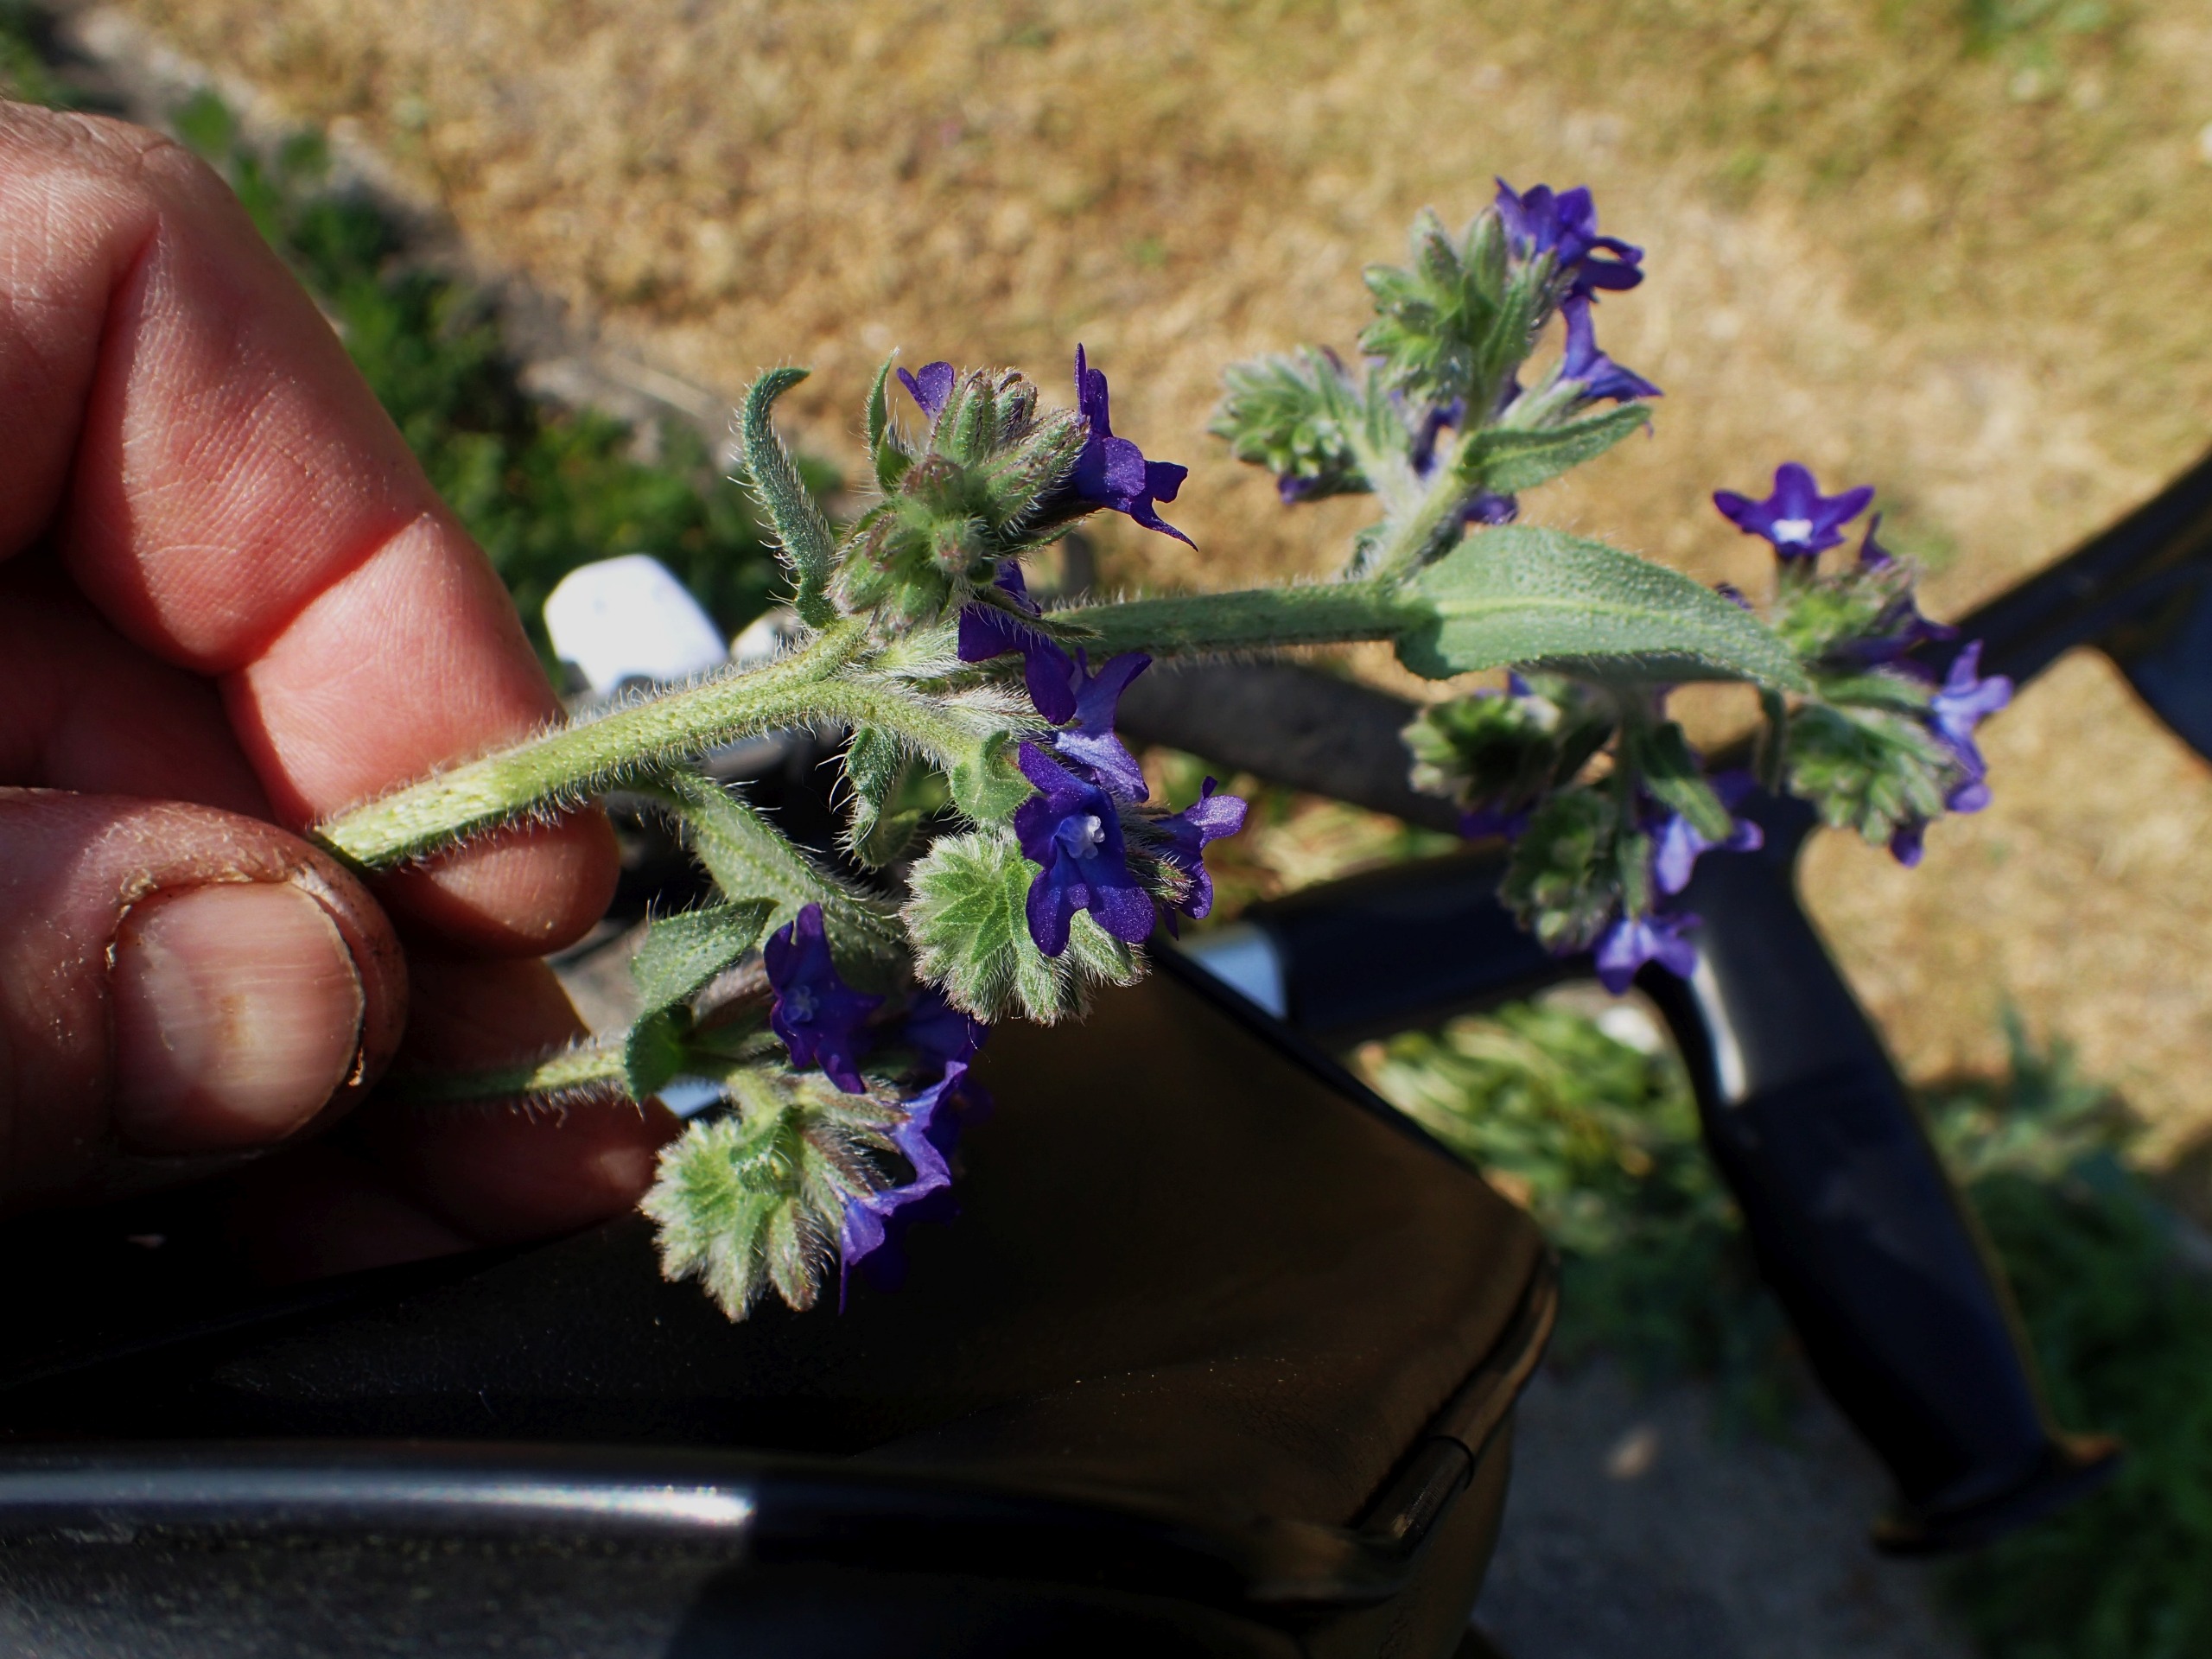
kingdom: Plantae
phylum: Tracheophyta
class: Magnoliopsida
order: Boraginales
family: Boraginaceae
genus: Anchusa
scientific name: Anchusa officinalis
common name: Læge-oksetunge
